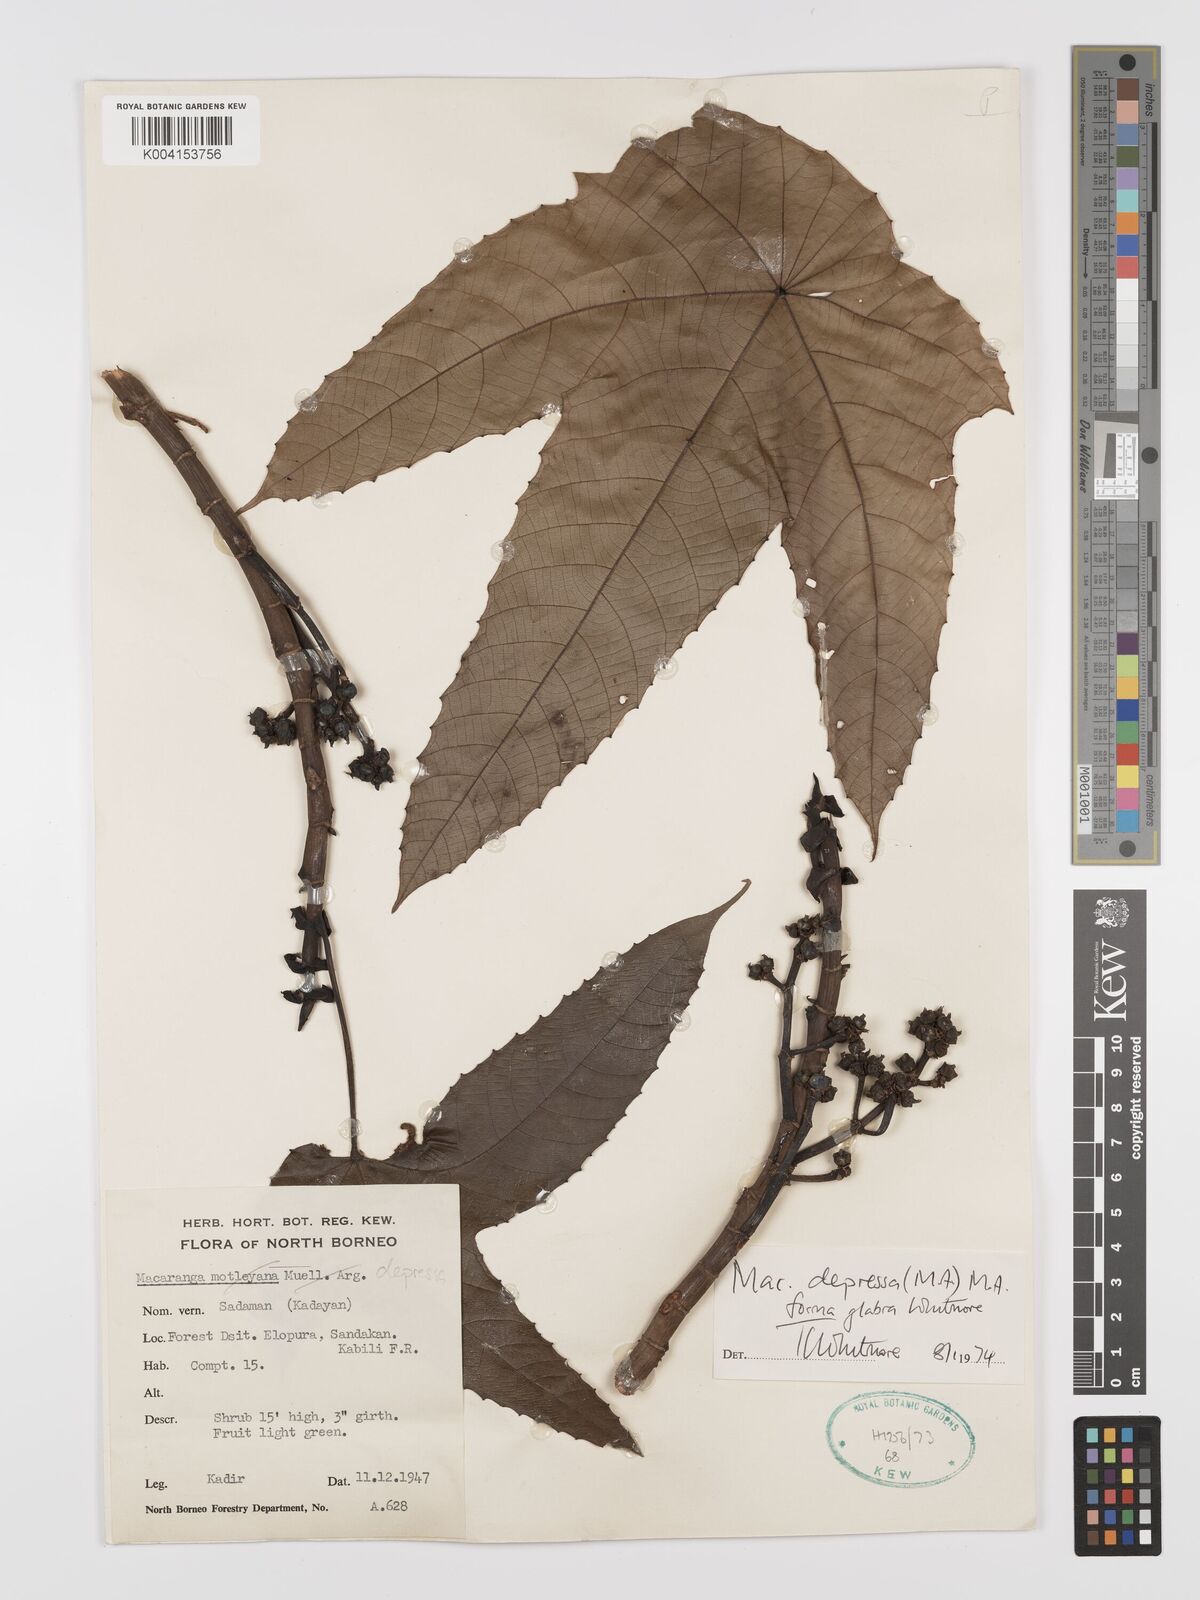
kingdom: Plantae
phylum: Tracheophyta
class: Magnoliopsida
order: Malpighiales
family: Euphorbiaceae
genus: Macaranga
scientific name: Macaranga depressa
